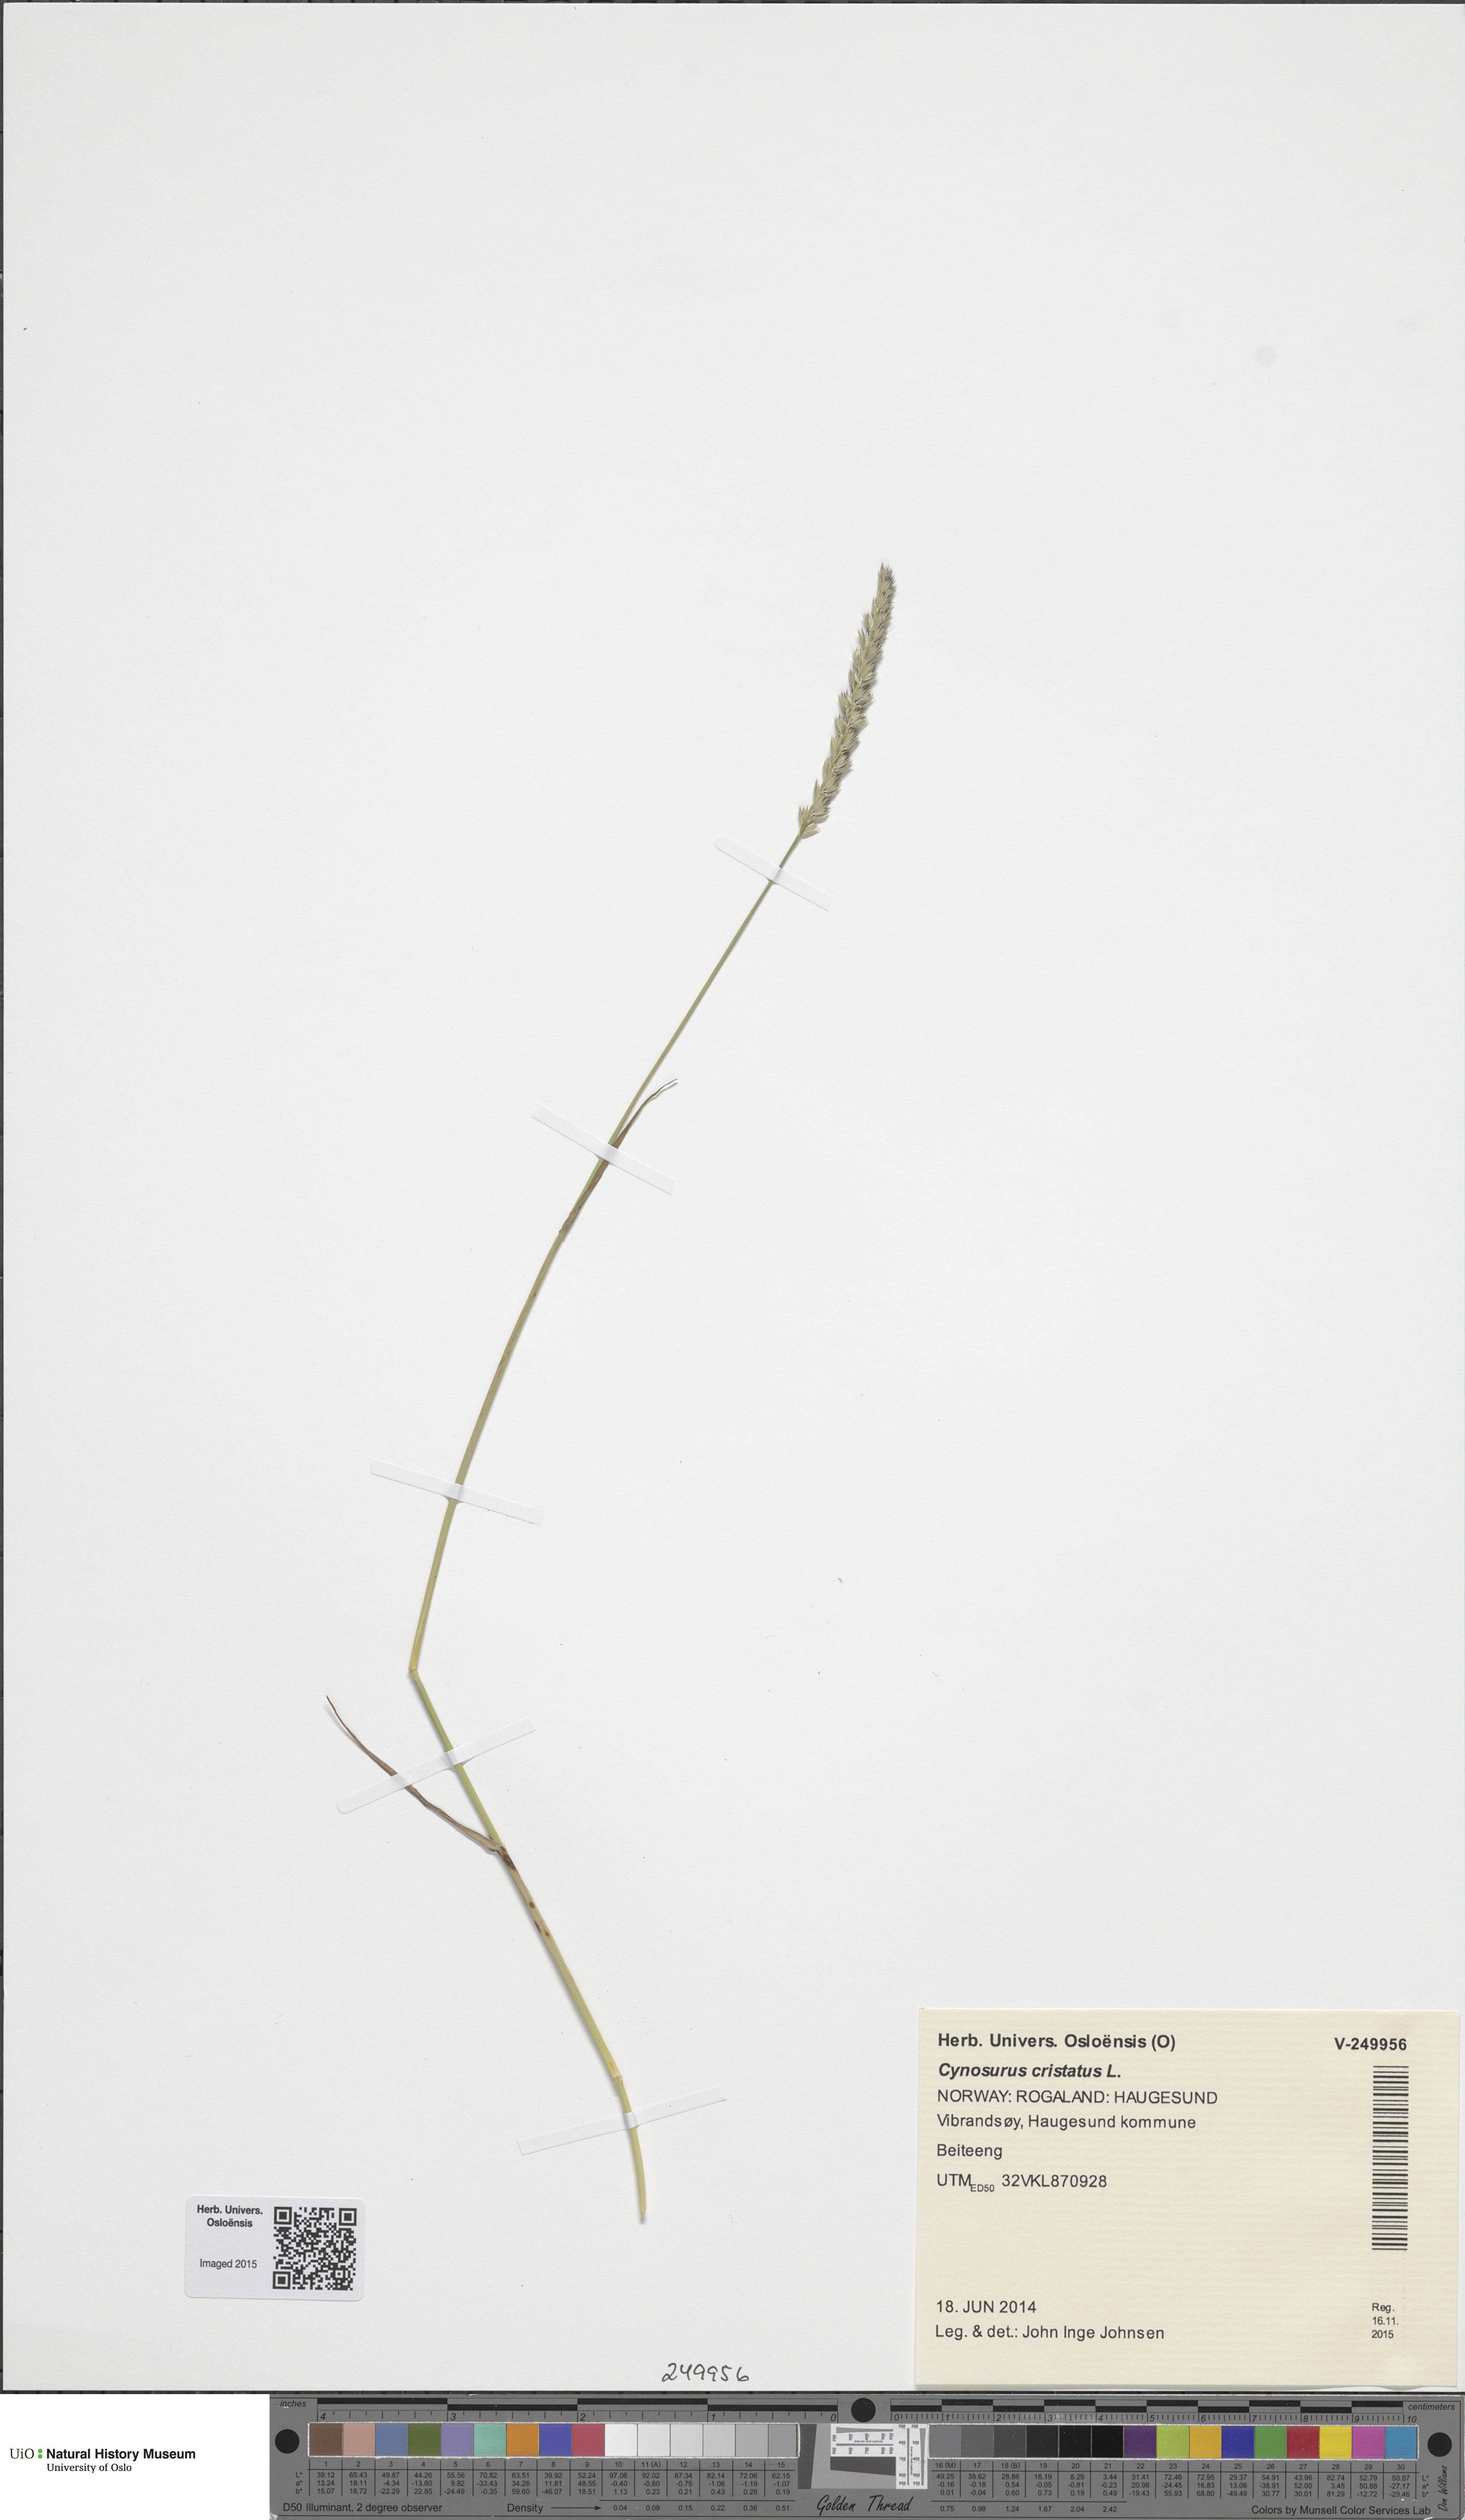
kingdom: Plantae
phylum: Tracheophyta
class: Liliopsida
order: Poales
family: Poaceae
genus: Cynosurus
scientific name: Cynosurus cristatus
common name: Crested dog's-tail
